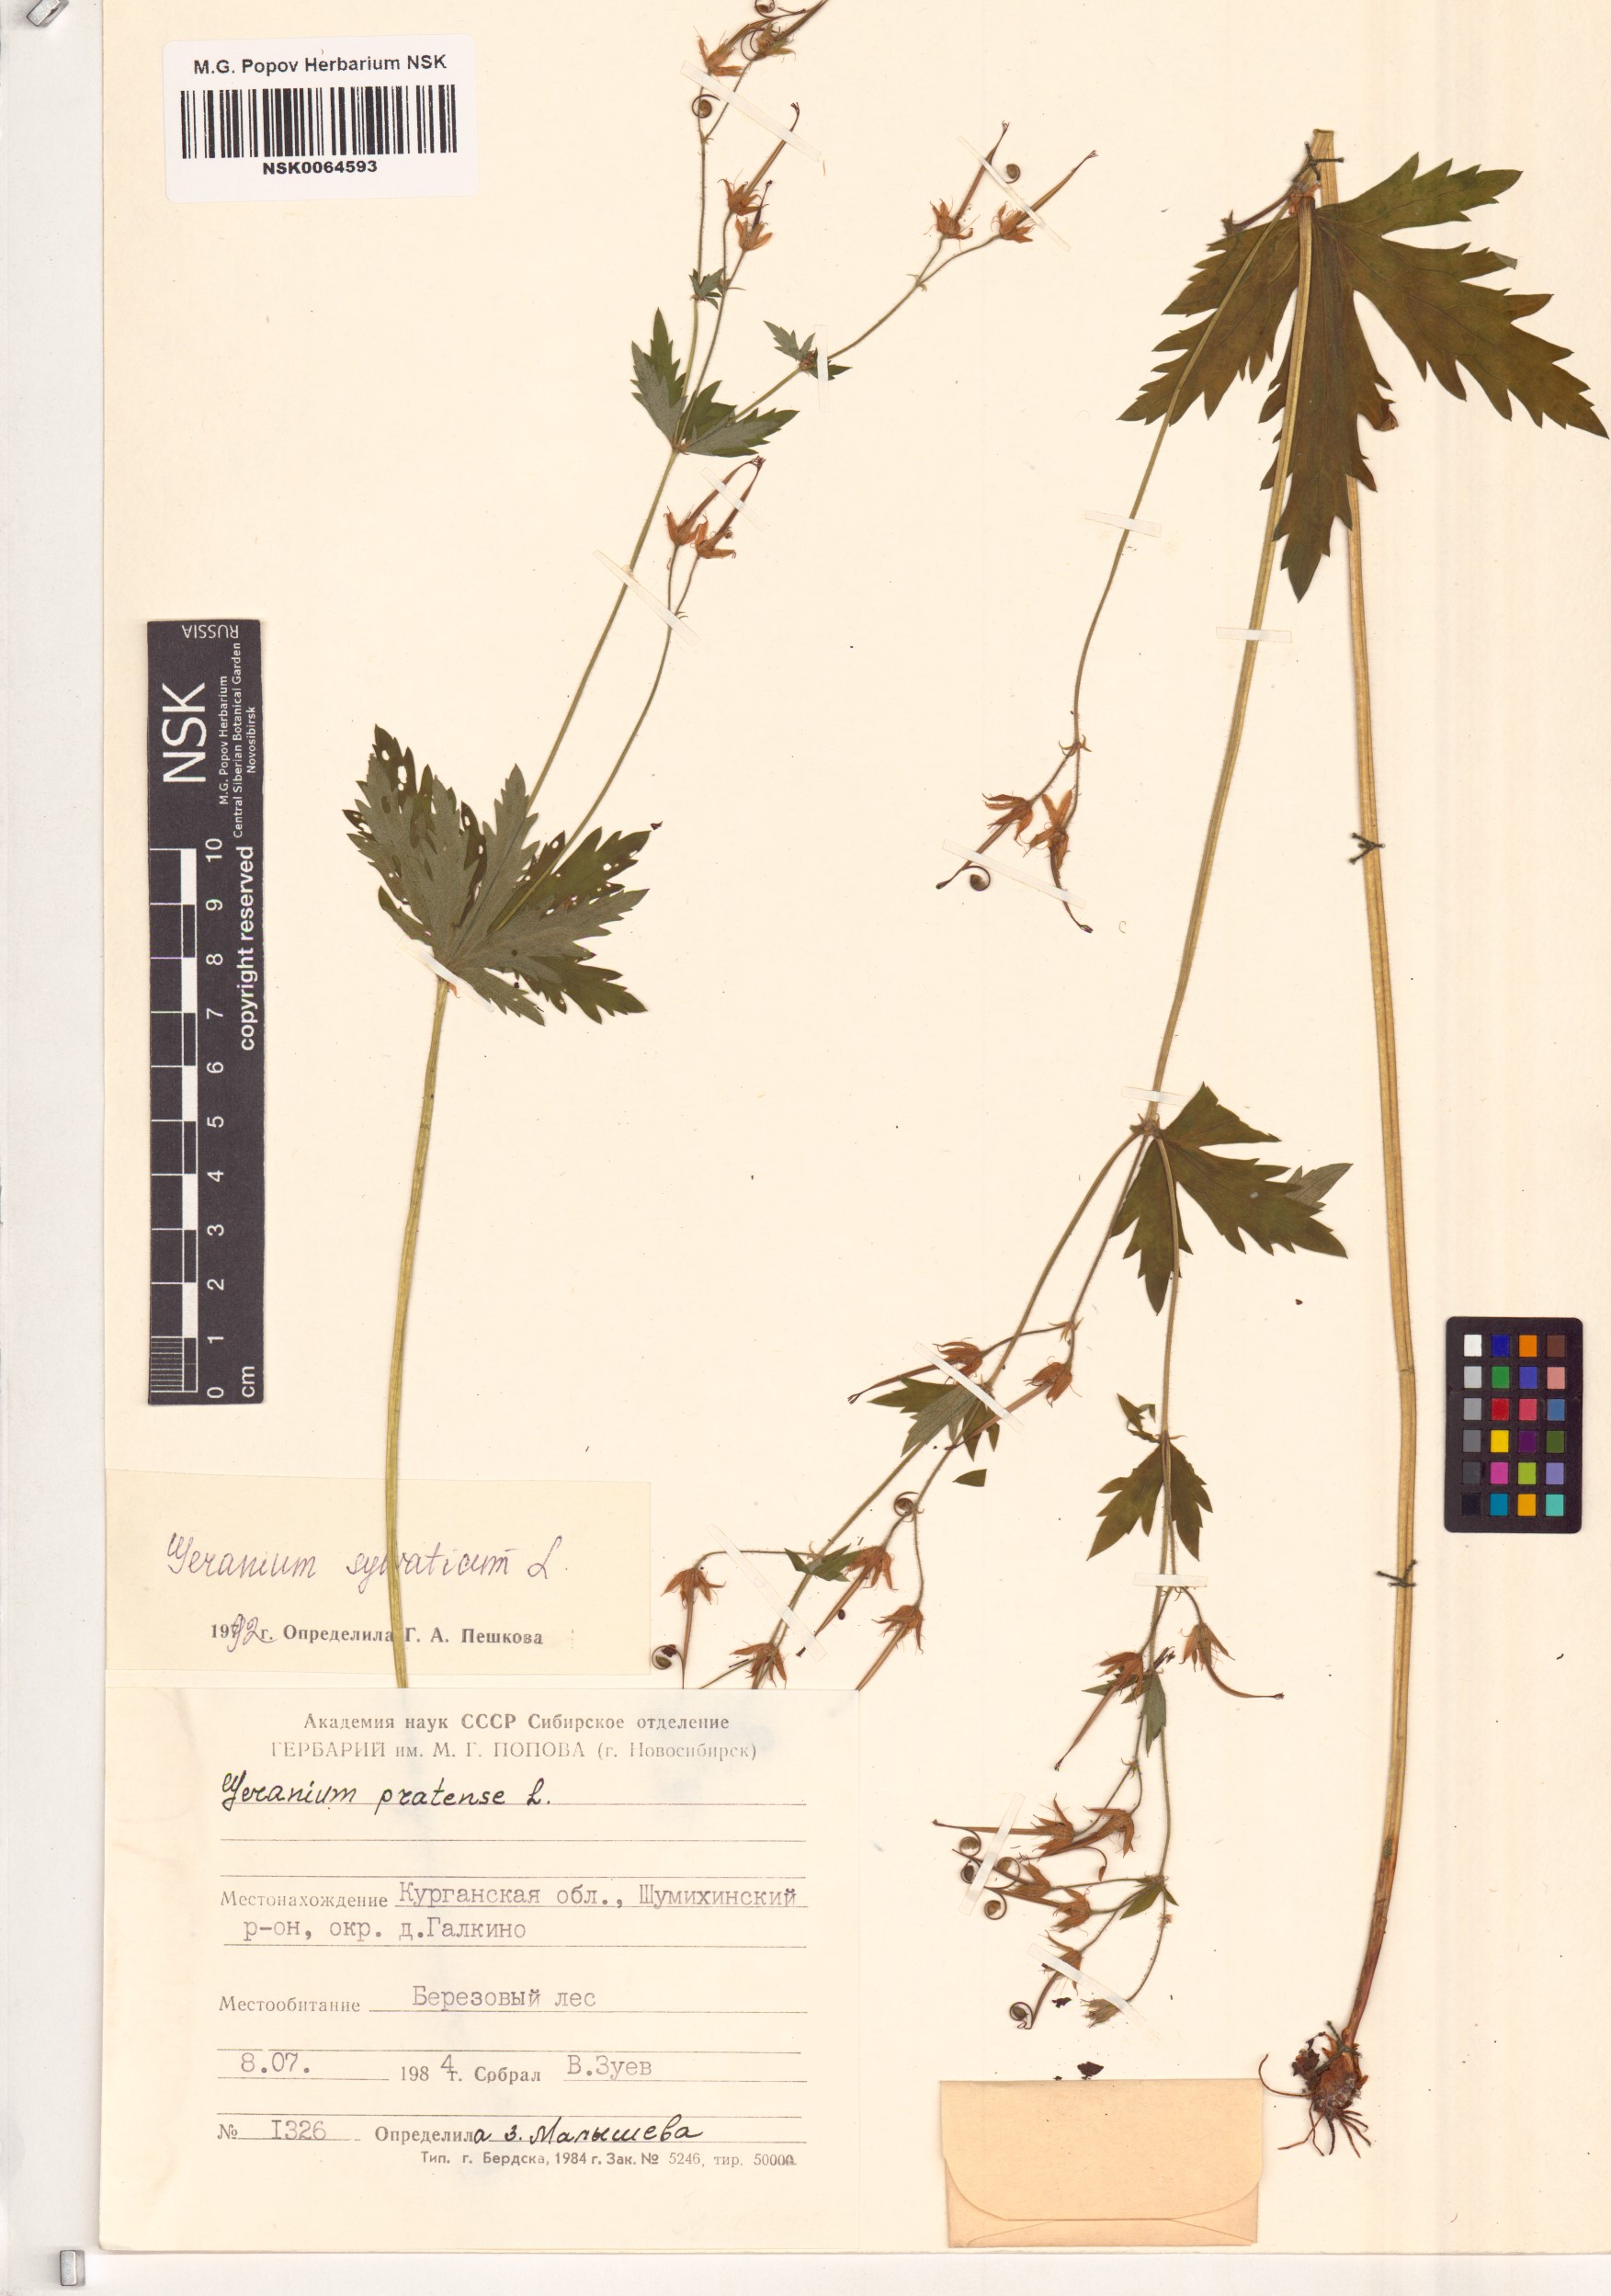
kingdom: Plantae
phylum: Tracheophyta
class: Magnoliopsida
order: Geraniales
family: Geraniaceae
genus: Geranium
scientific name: Geranium sylvaticum
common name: Wood crane's-bill
